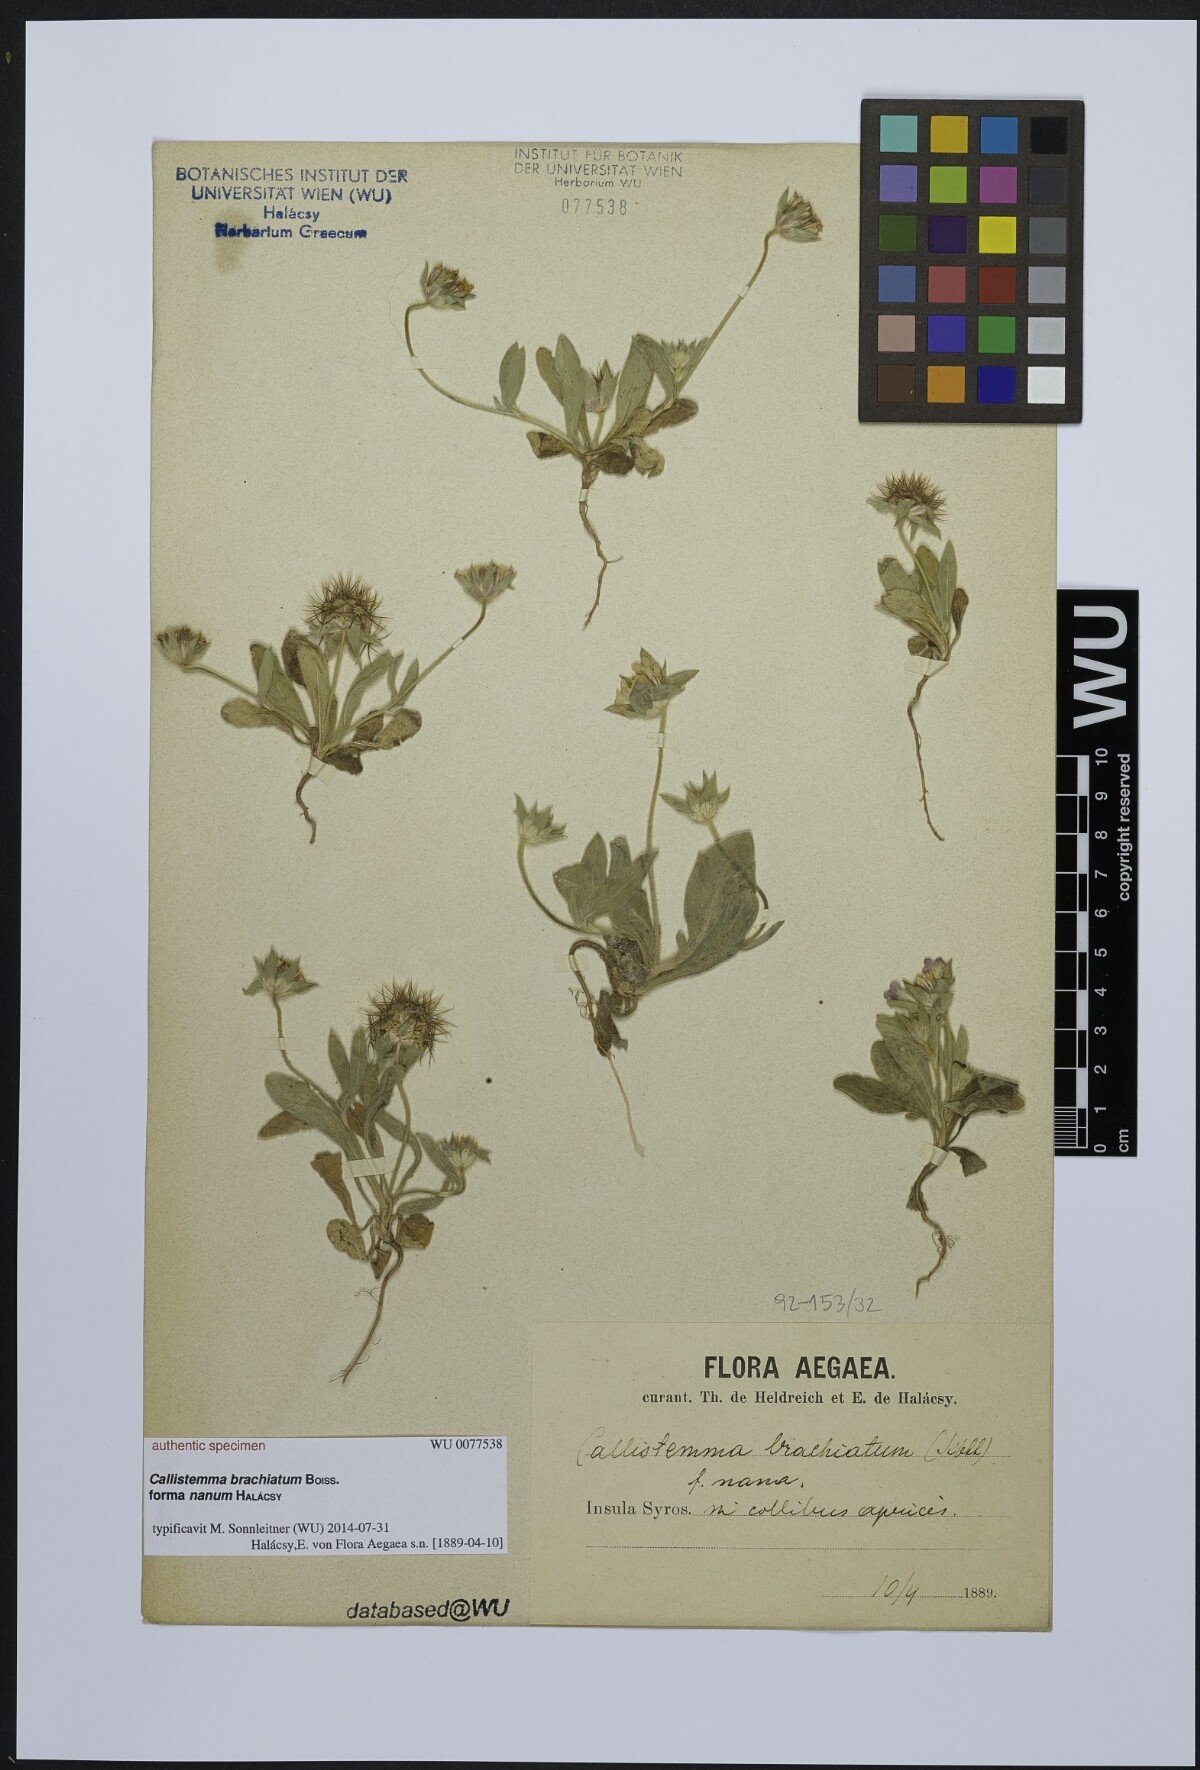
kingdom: Plantae
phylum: Tracheophyta
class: Magnoliopsida
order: Dipsacales
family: Caprifoliaceae
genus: Lomelosia
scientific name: Lomelosia brachiata
